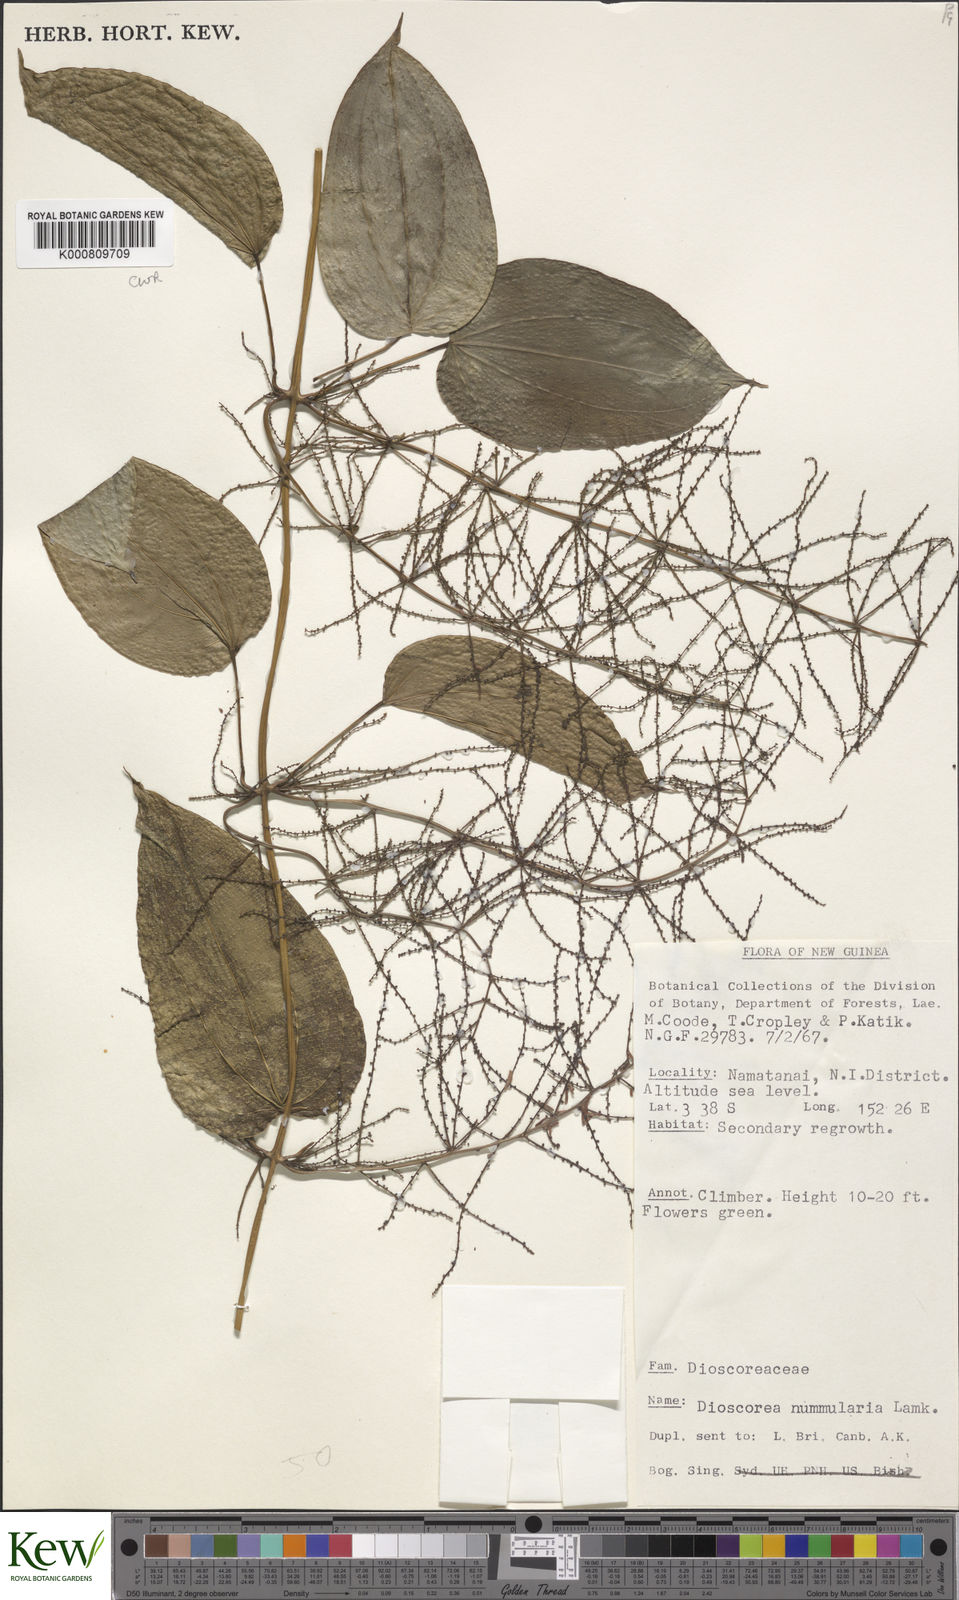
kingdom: Plantae
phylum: Tracheophyta
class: Liliopsida
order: Dioscoreales
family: Dioscoreaceae
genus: Dioscorea
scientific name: Dioscorea nummularia
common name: Pacific yam
